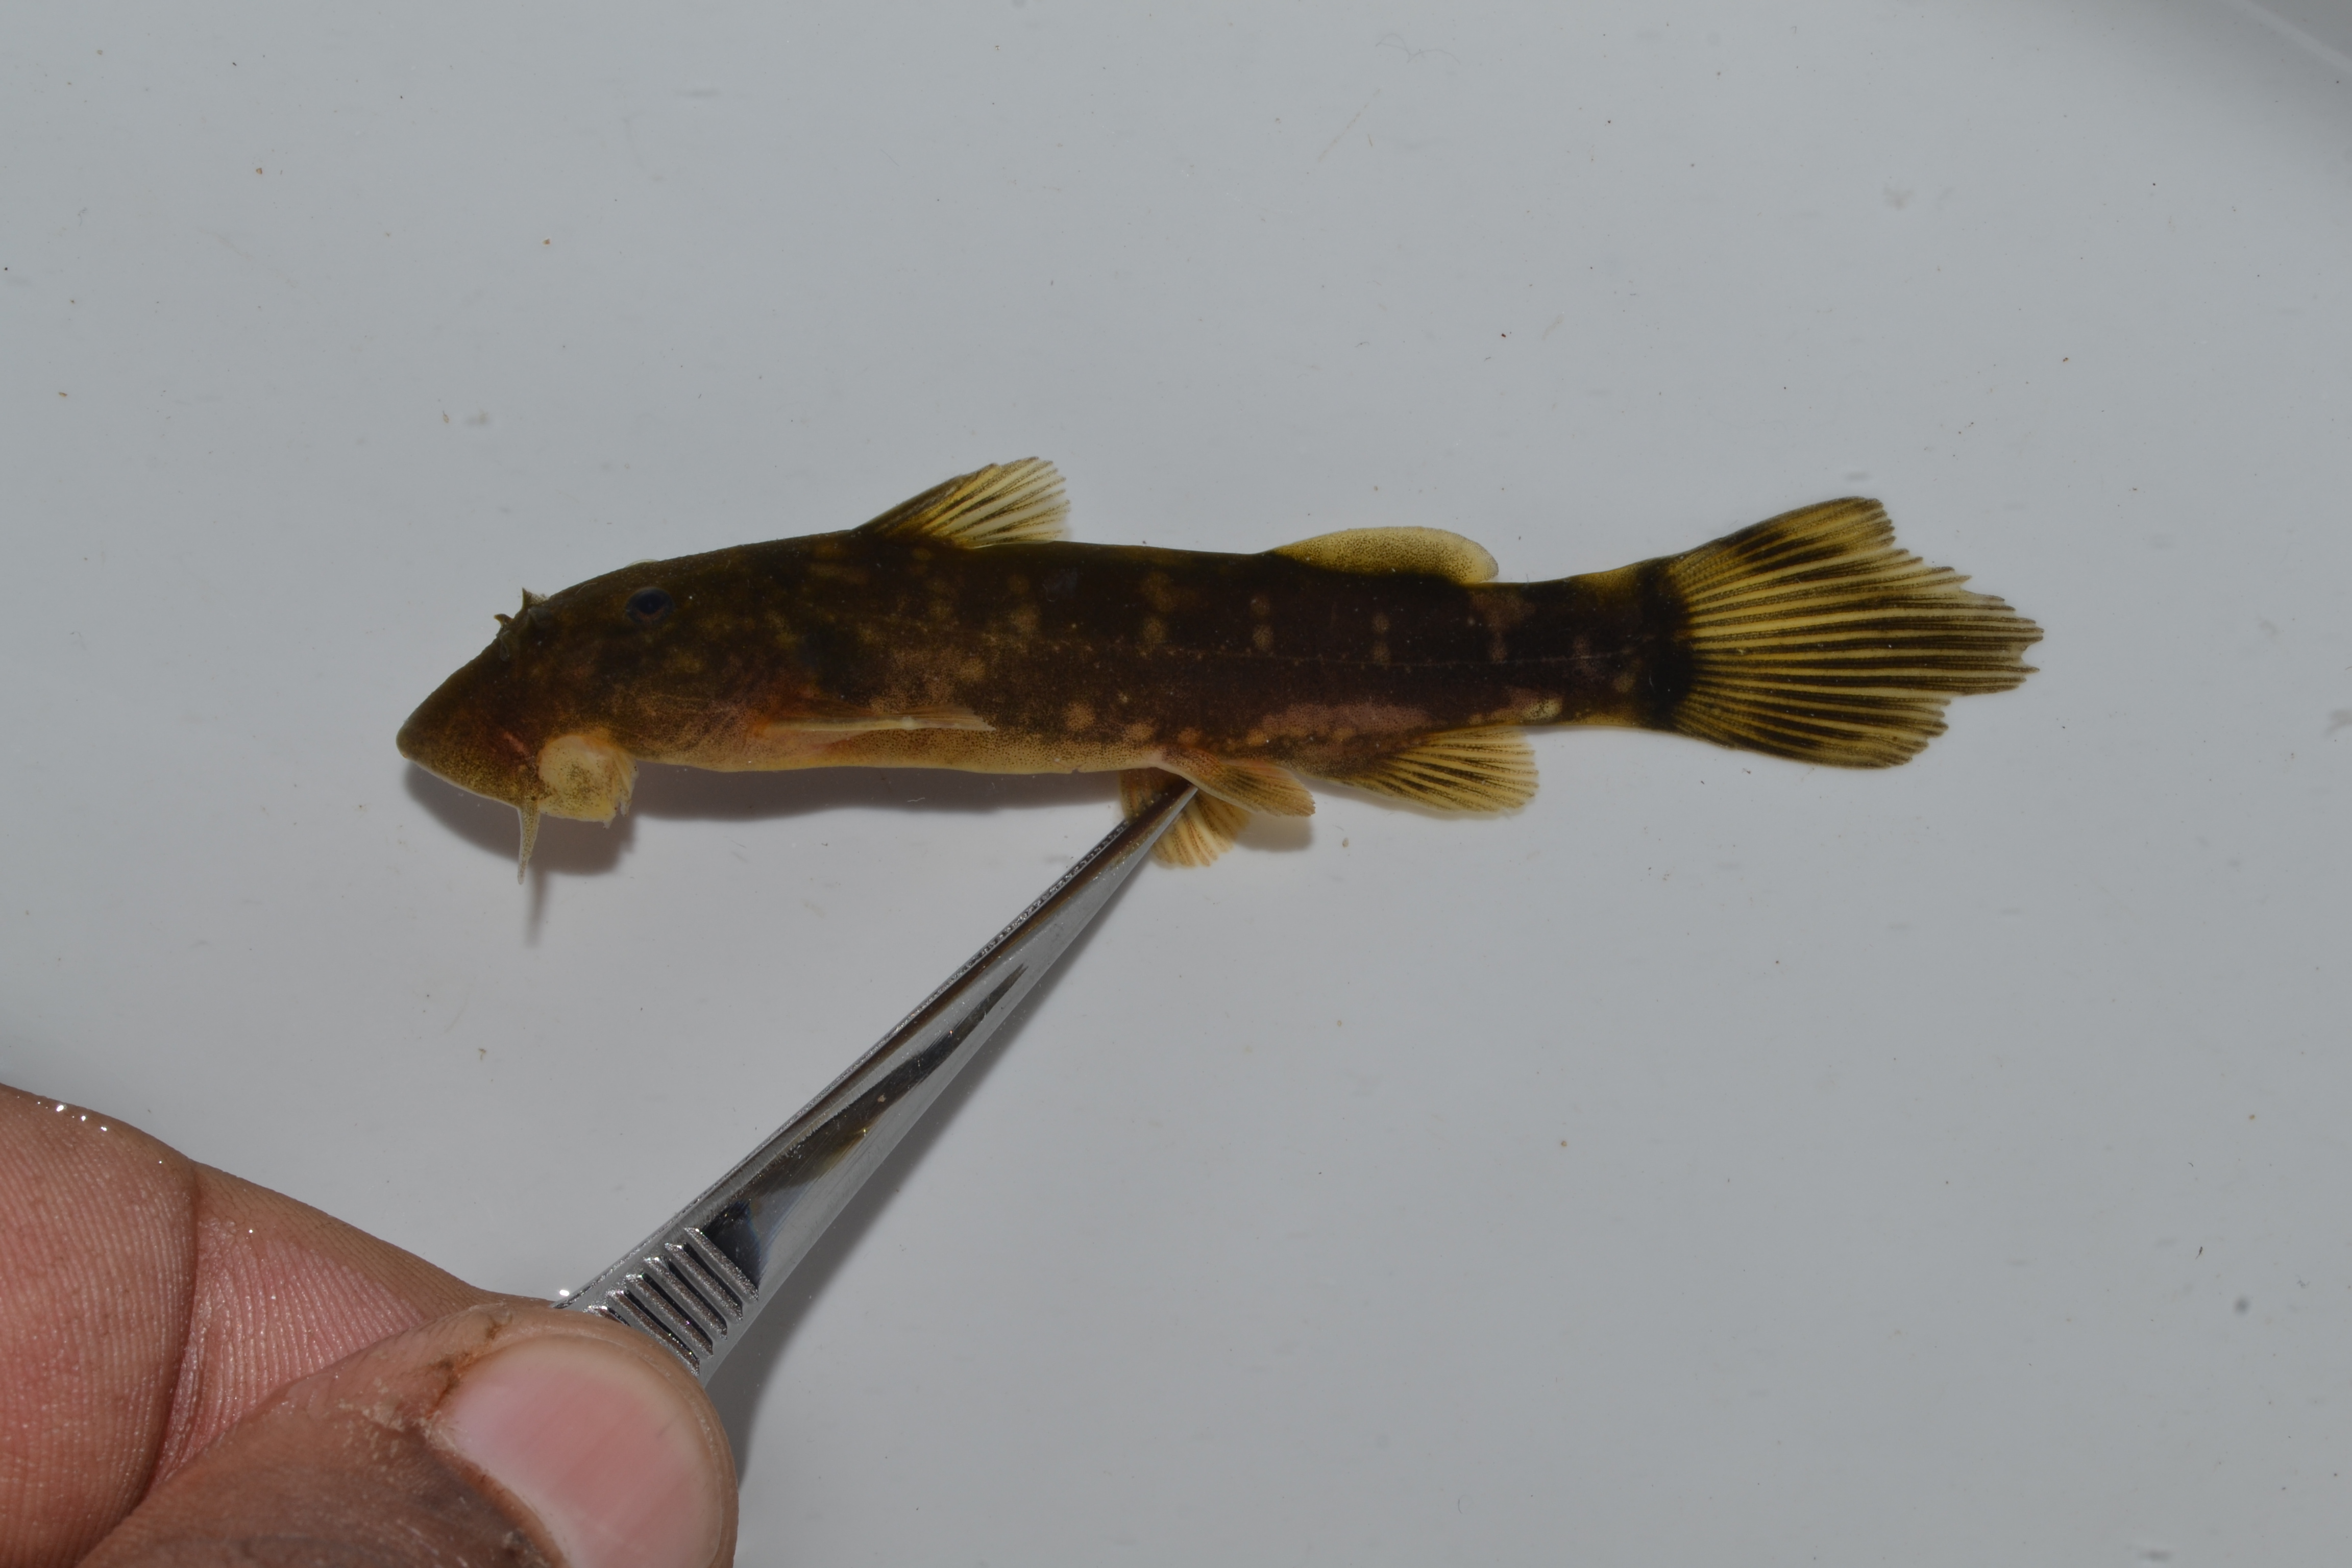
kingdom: Animalia
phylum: Chordata
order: Siluriformes
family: Mochokidae
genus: Chiloglanis
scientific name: Chiloglanis anoterus
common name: Pennant-tailed catlet
